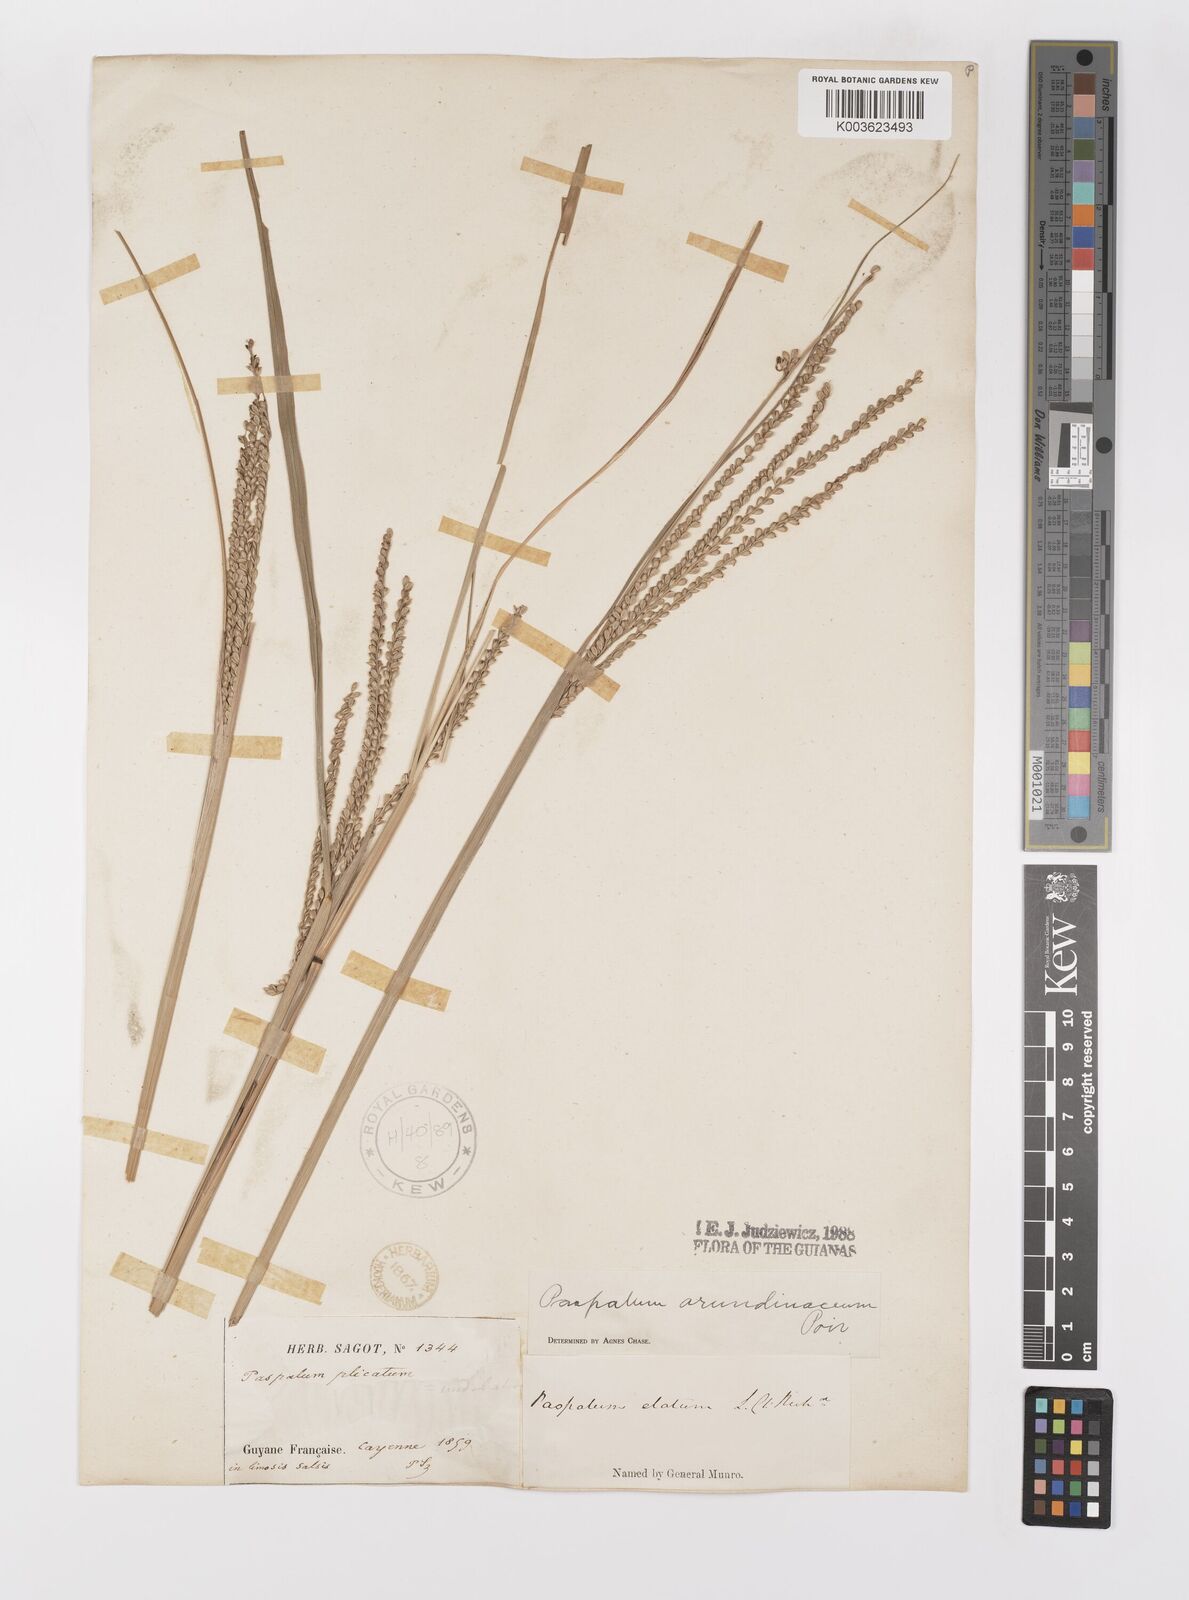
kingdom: Plantae
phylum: Tracheophyta
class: Liliopsida
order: Poales
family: Poaceae
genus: Paspalum
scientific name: Paspalum arundinaceum
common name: Thick ditch crowngrass
